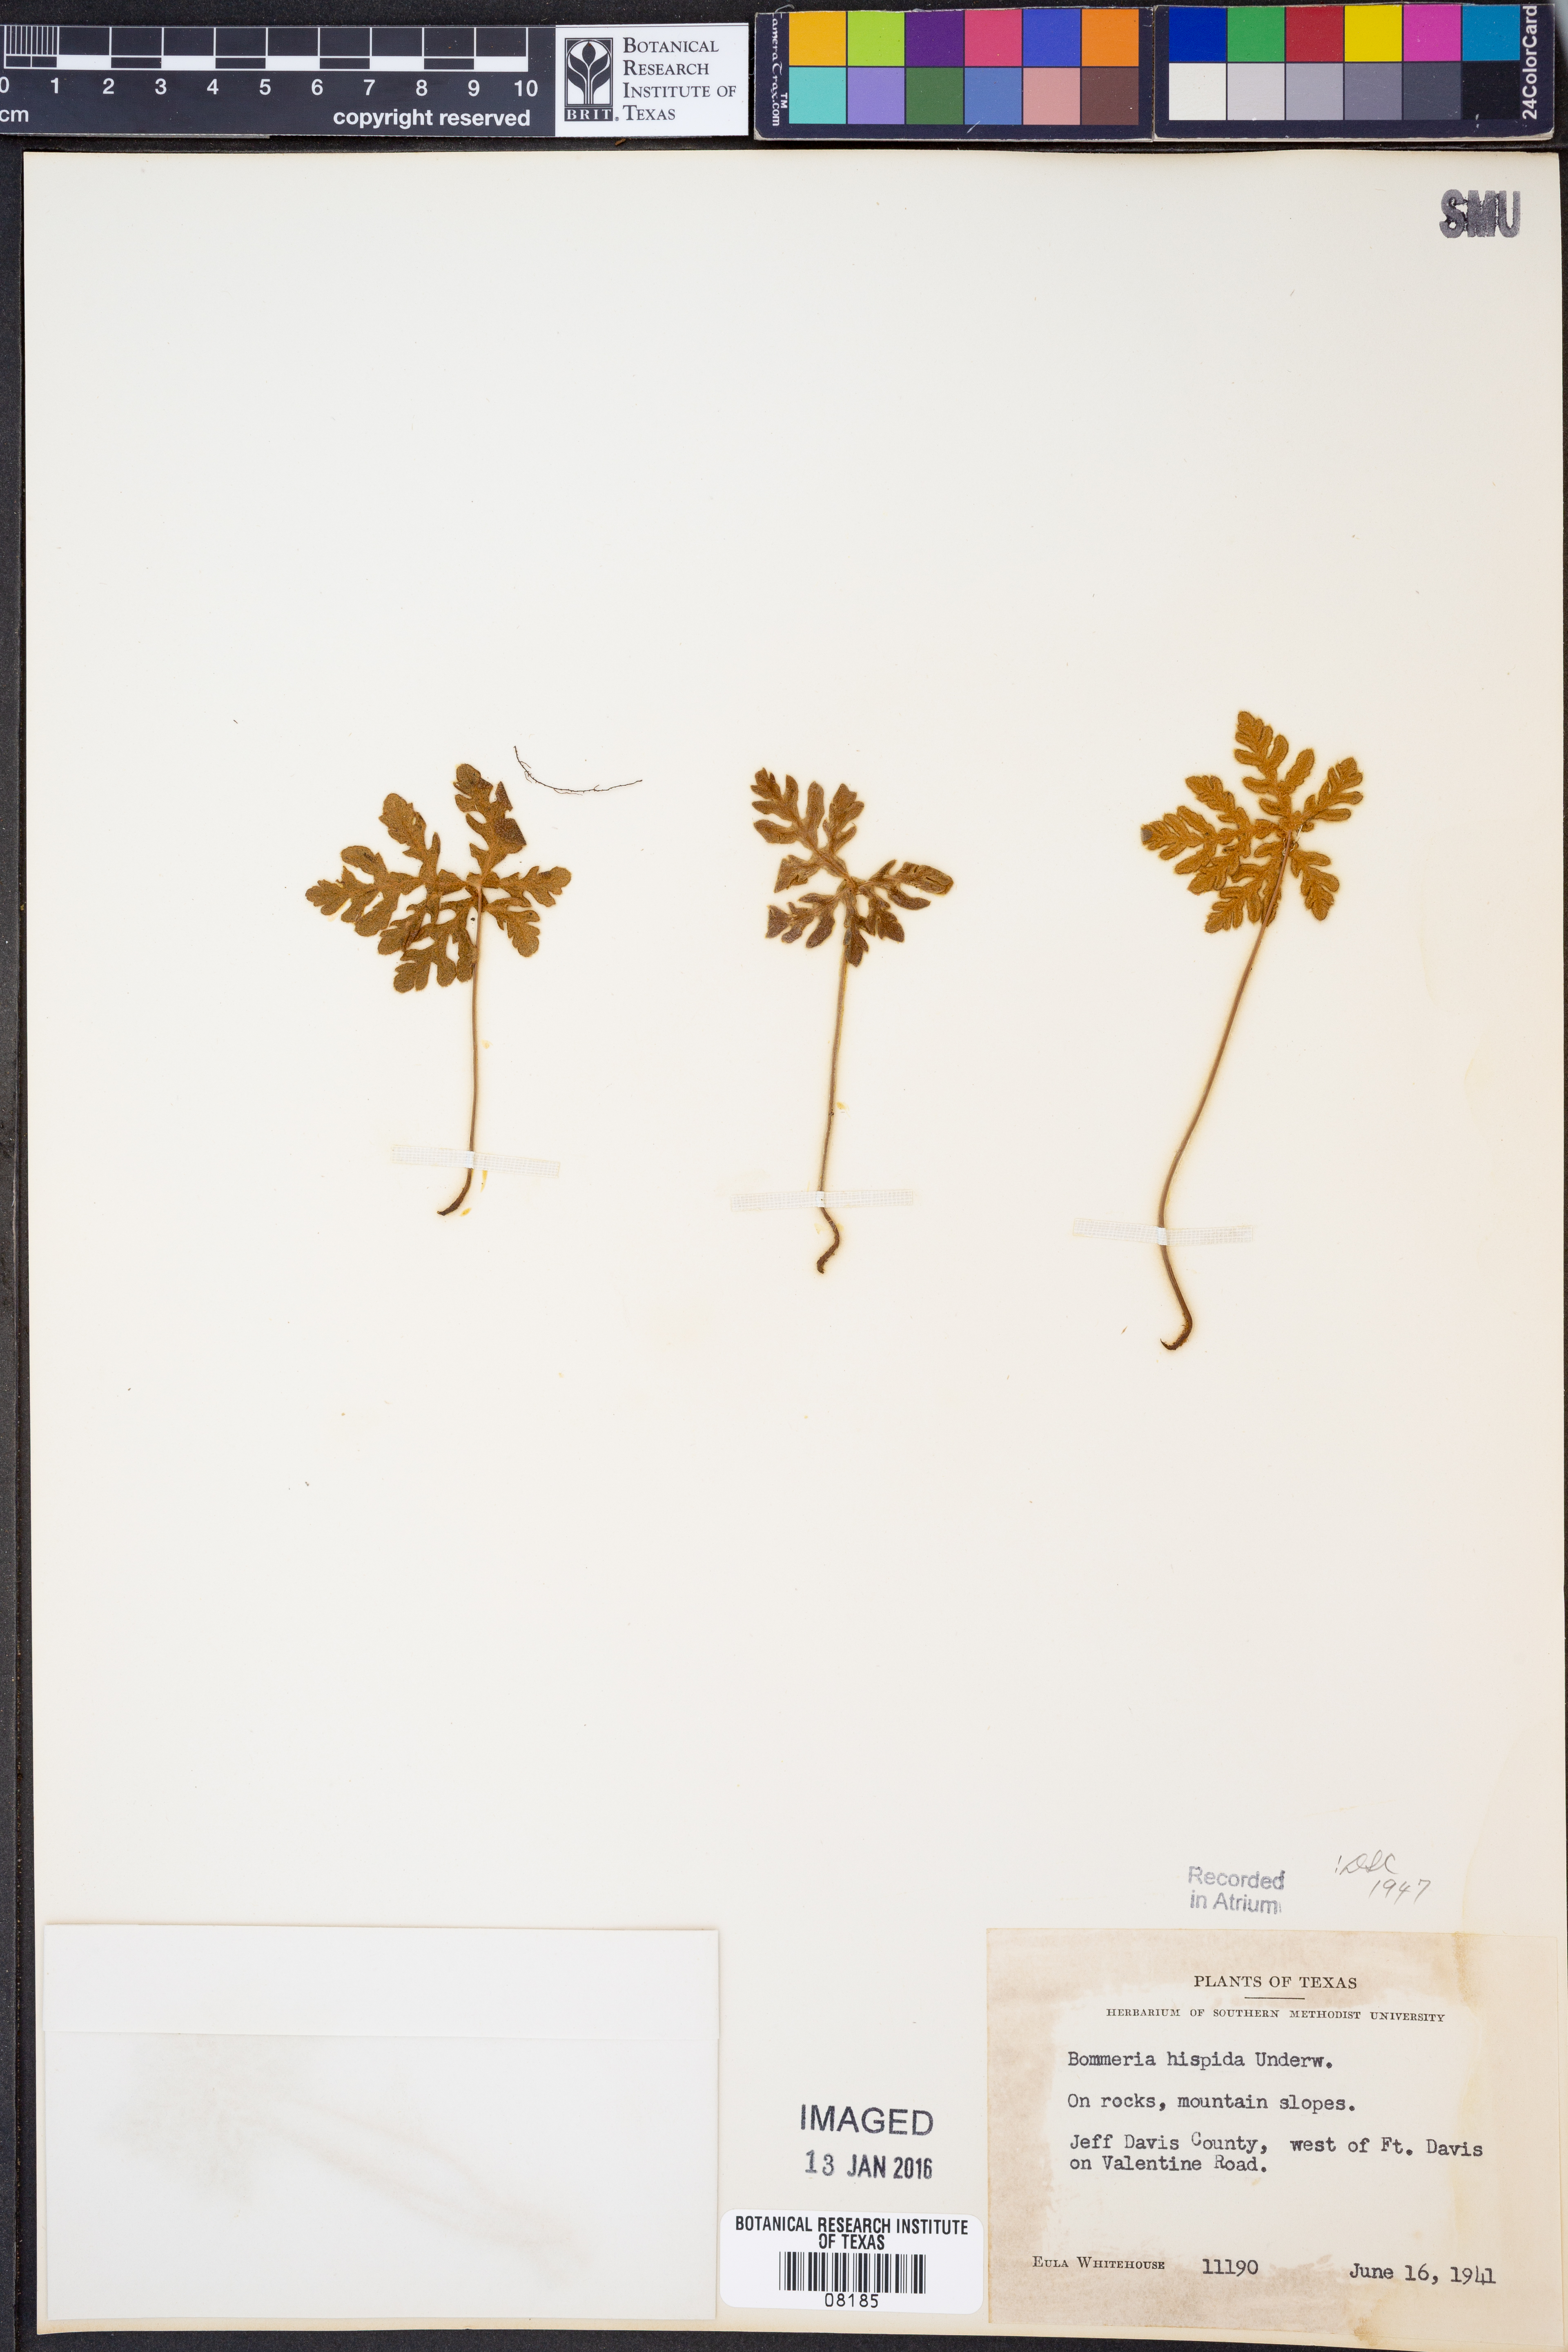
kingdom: Plantae
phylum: Tracheophyta
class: Polypodiopsida
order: Polypodiales
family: Pteridaceae
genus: Bommeria
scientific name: Bommeria hispida
